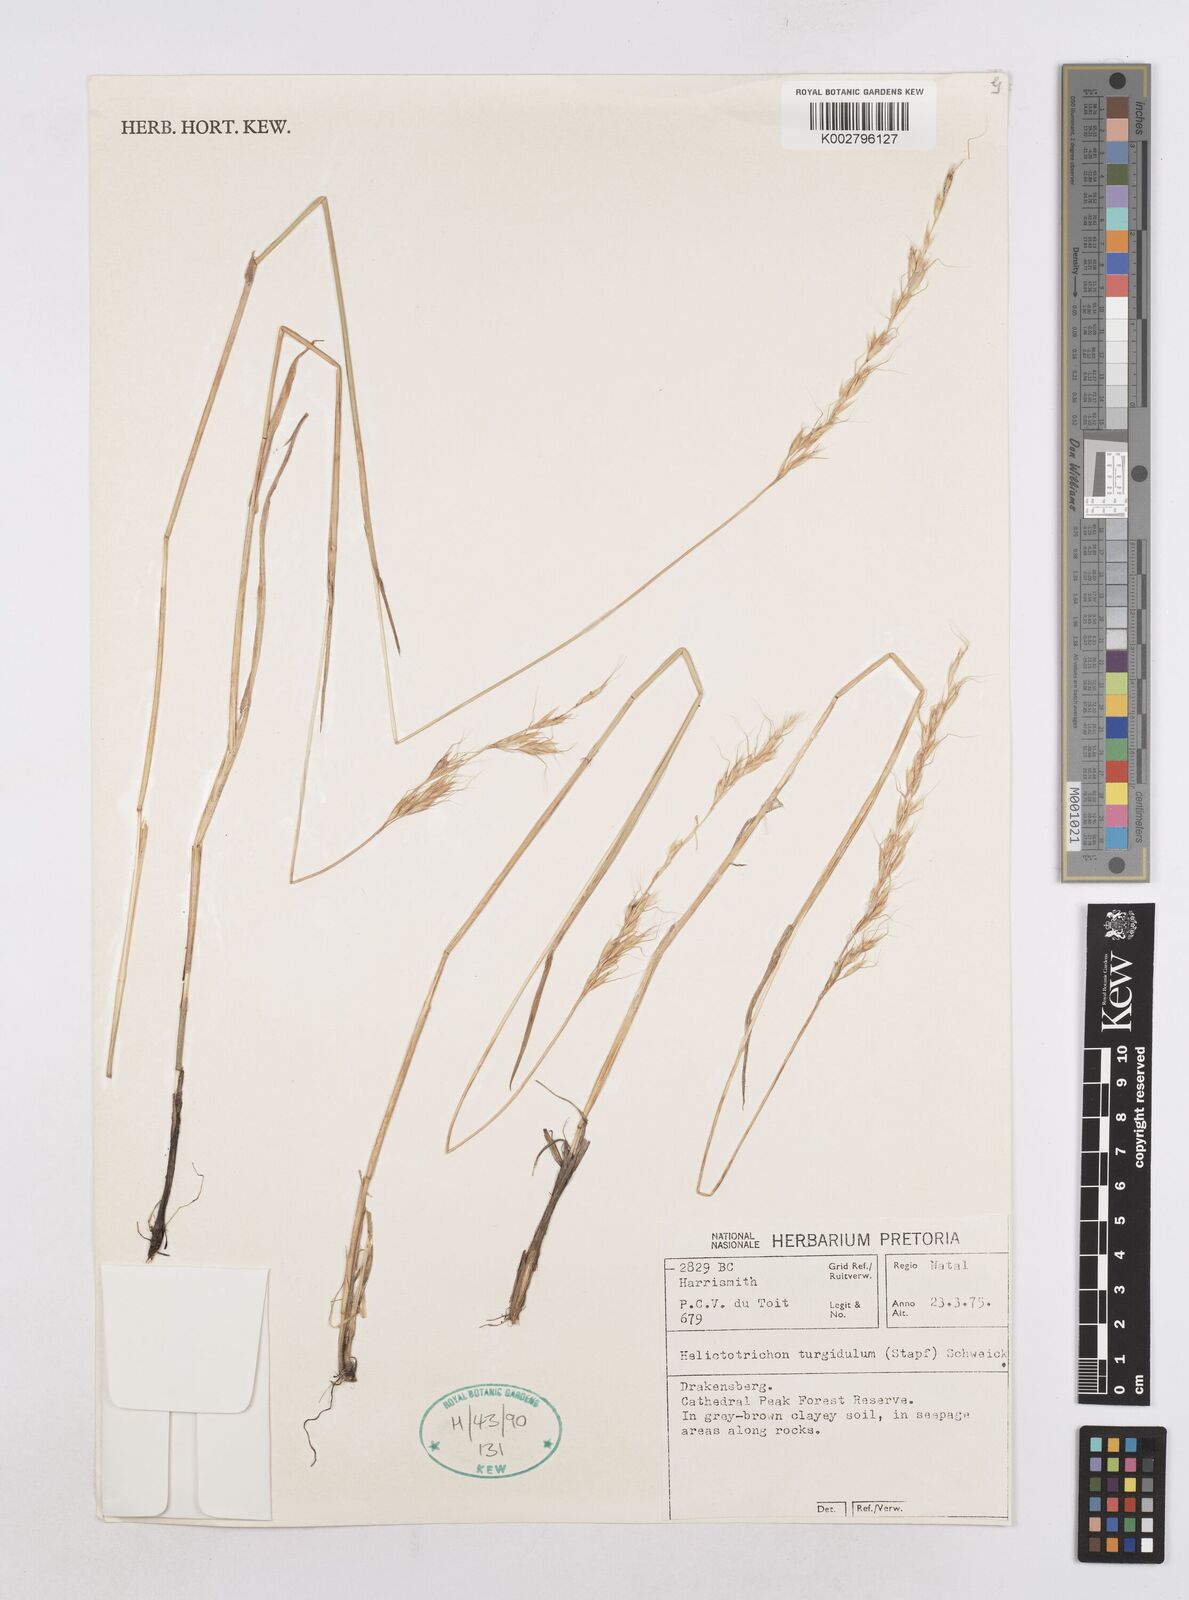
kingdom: Plantae
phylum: Tracheophyta
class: Liliopsida
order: Poales
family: Poaceae
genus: Trisetopsis
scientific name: Trisetopsis imberbis
